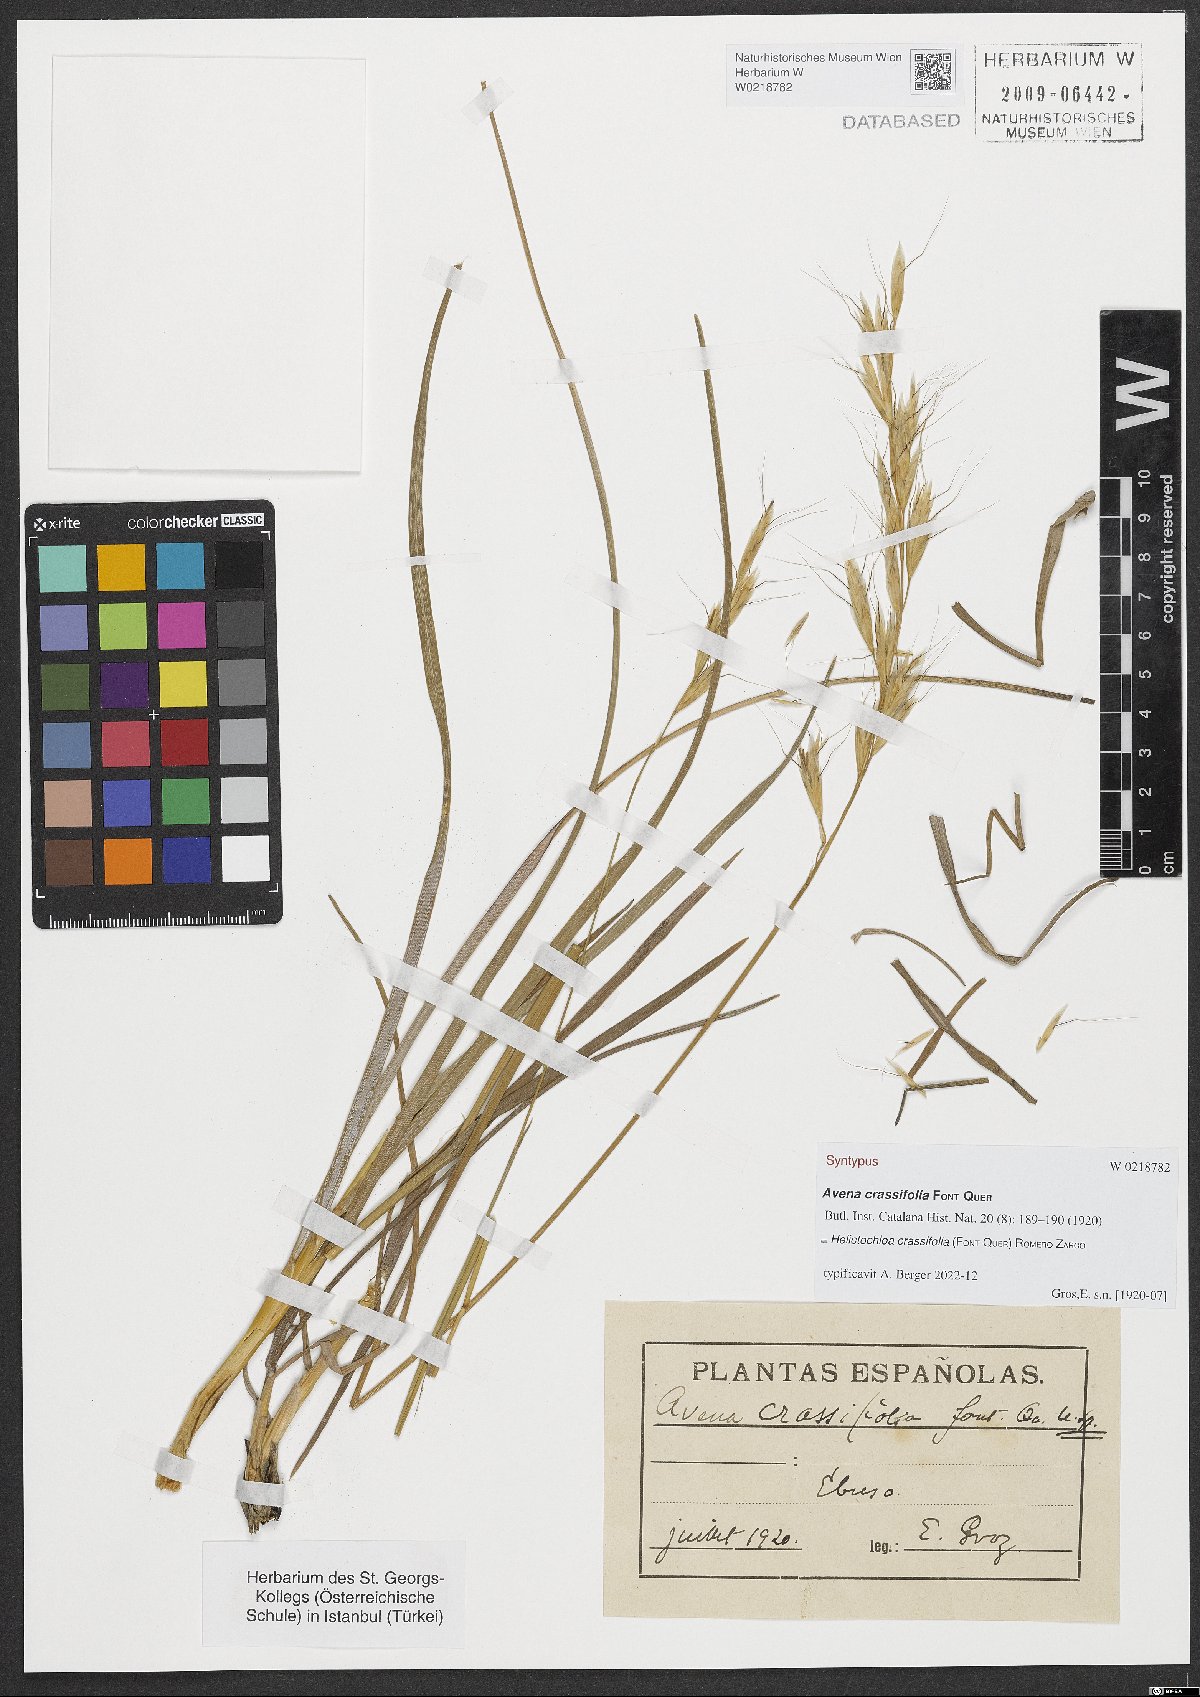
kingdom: Plantae
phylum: Tracheophyta
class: Liliopsida
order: Poales
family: Poaceae
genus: Helictochloa
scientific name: Helictochloa crassifolia
